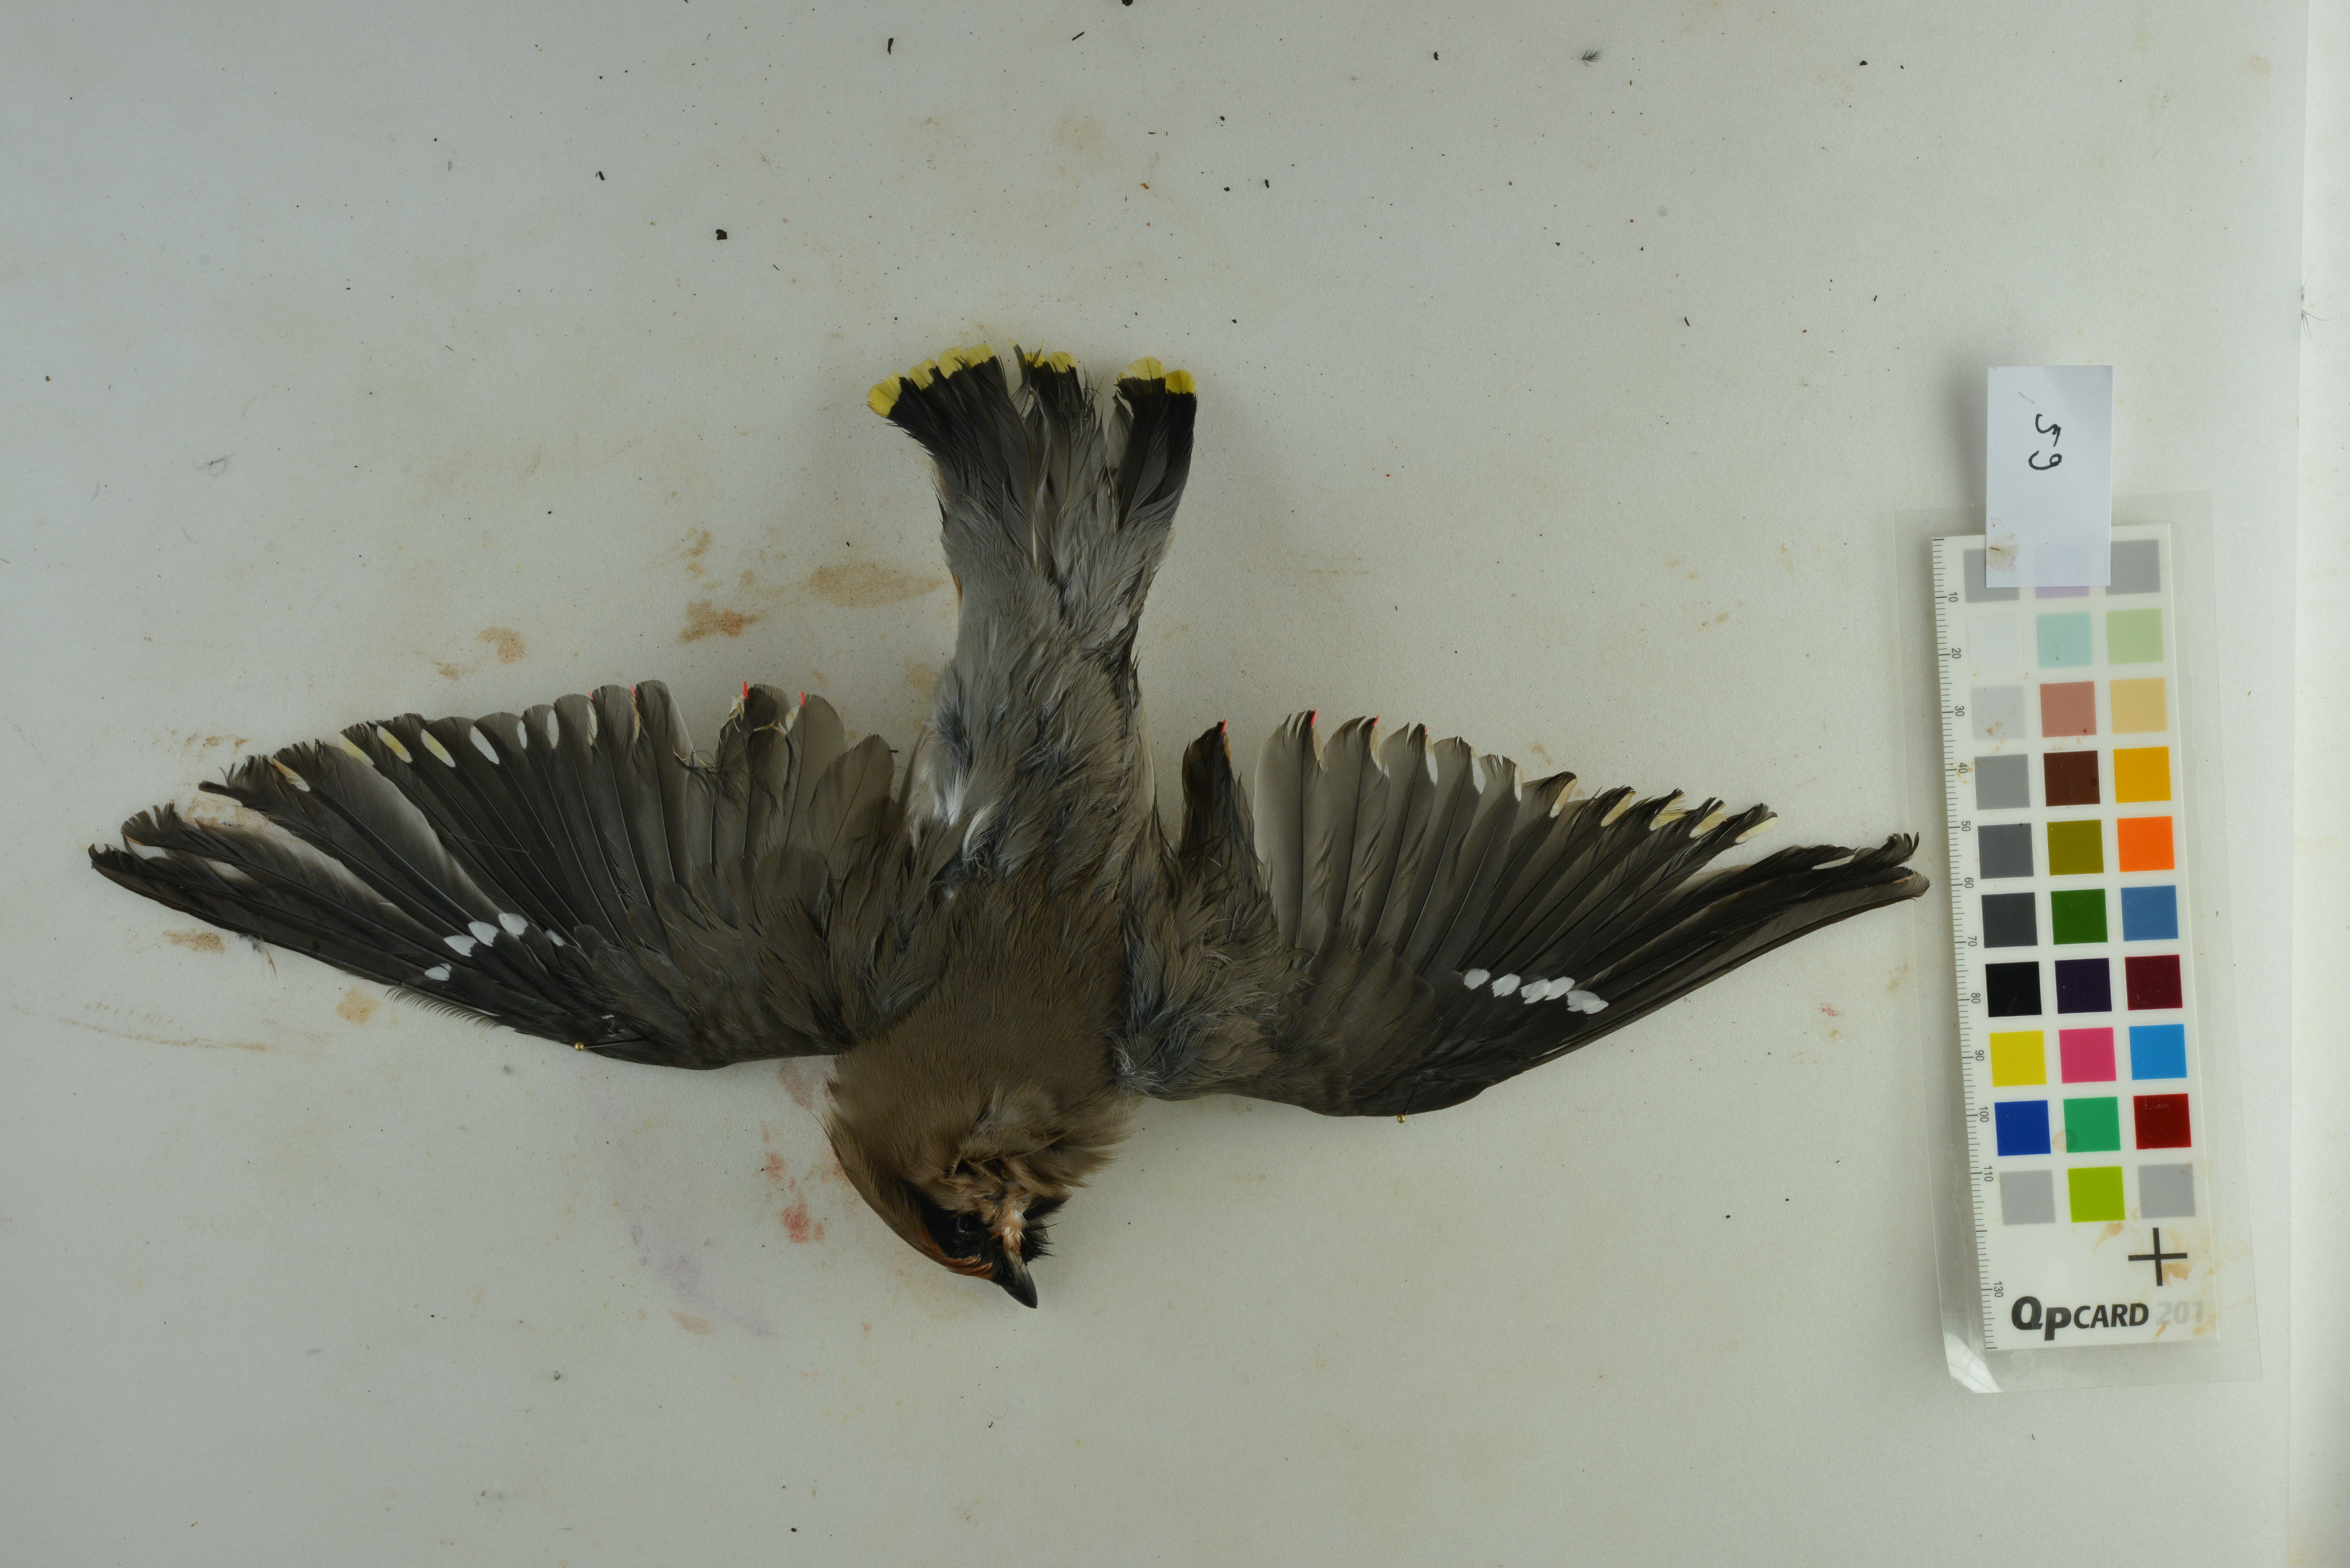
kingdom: Animalia
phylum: Chordata
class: Aves
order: Passeriformes
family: Bombycillidae
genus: Bombycilla
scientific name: Bombycilla garrulus
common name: Bohemian waxwing
